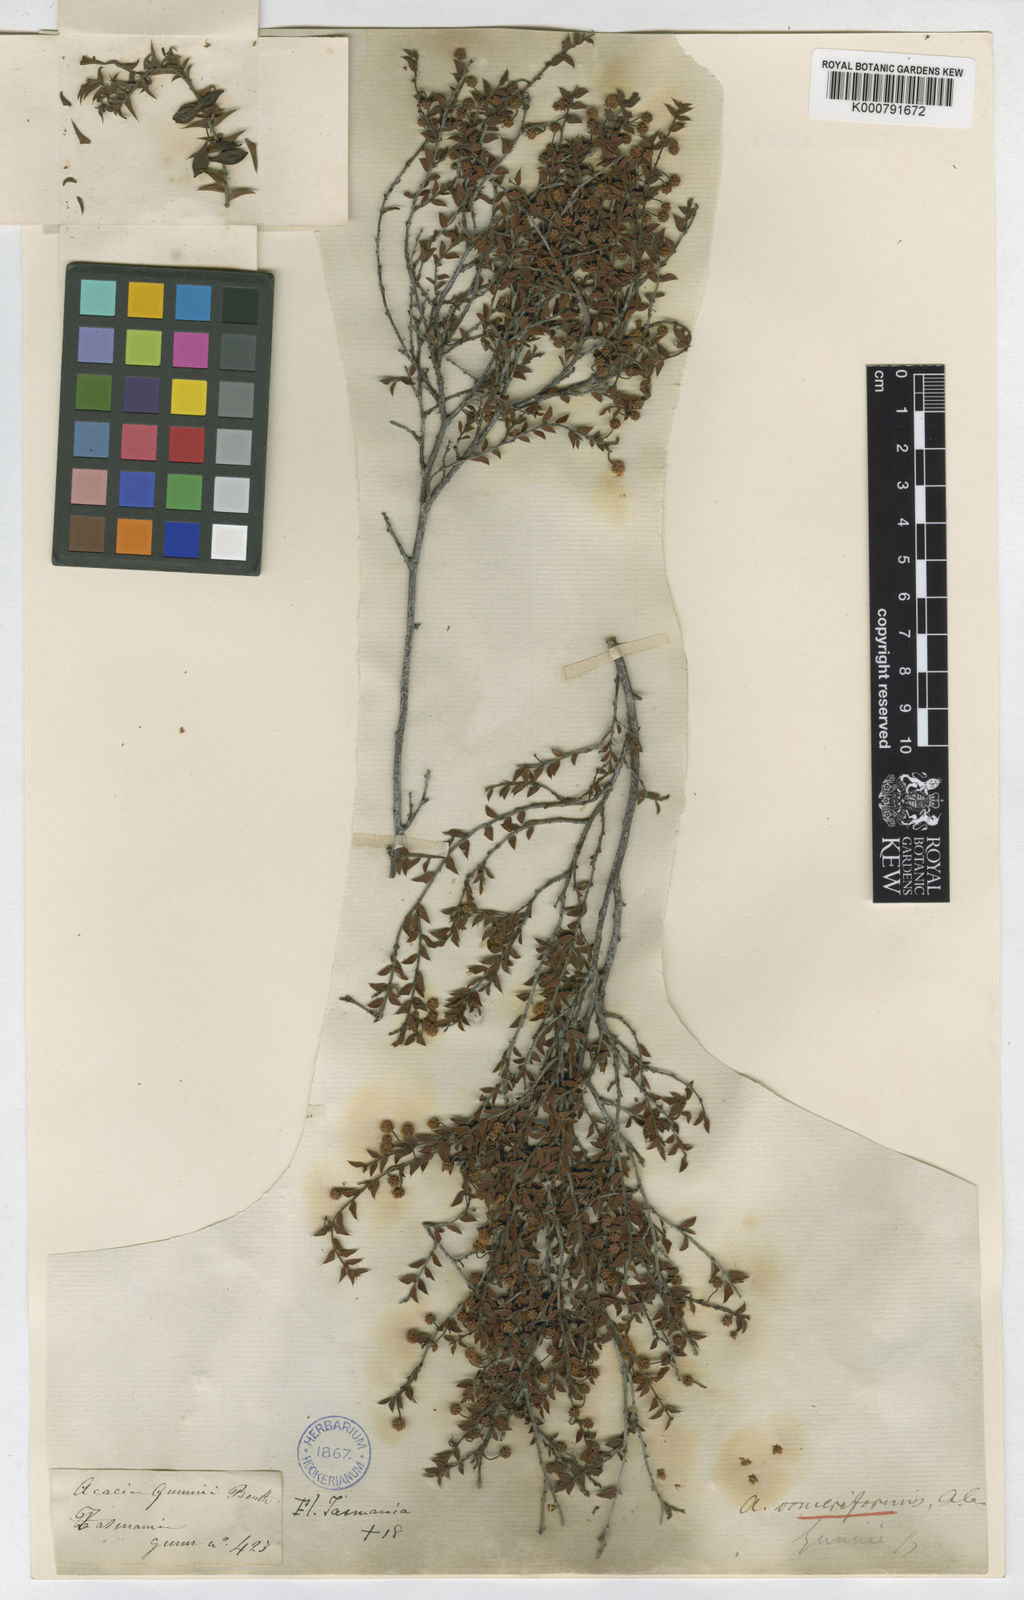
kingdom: Plantae
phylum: Tracheophyta
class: Magnoliopsida
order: Fabales
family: Fabaceae
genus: Acacia
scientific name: Acacia gunnii
